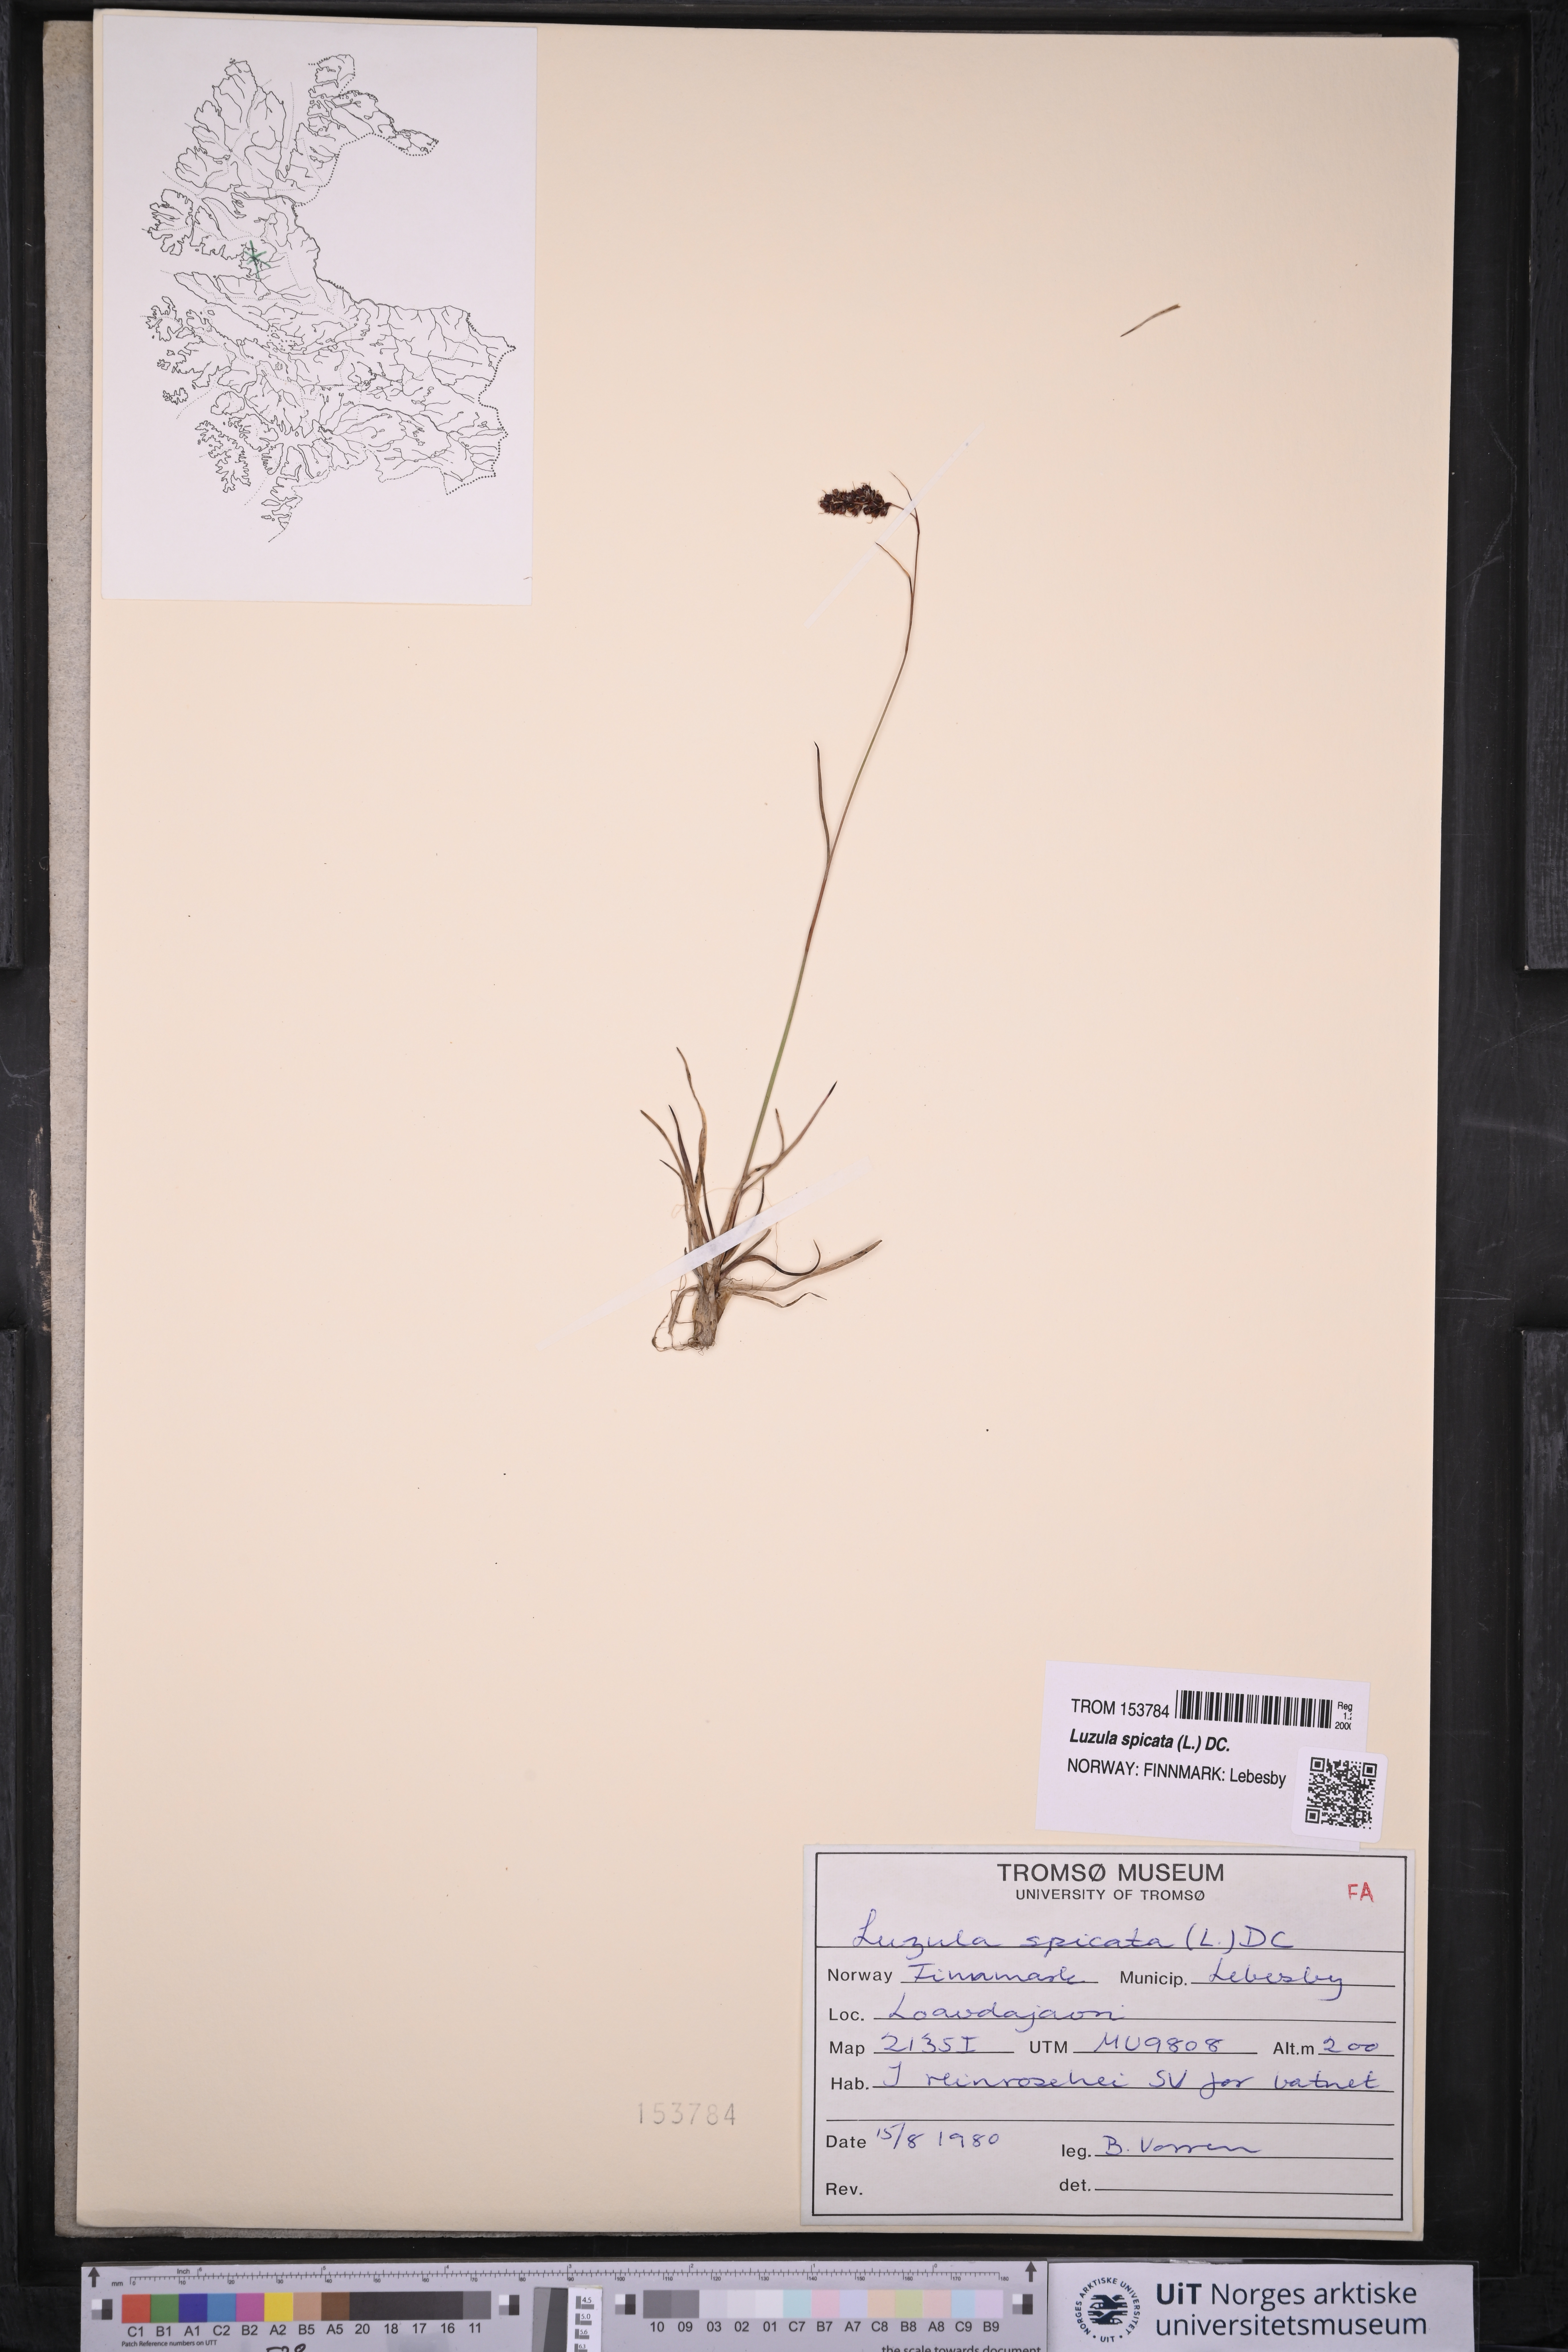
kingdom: Plantae
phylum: Tracheophyta
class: Liliopsida
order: Poales
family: Juncaceae
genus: Luzula
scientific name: Luzula spicata
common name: Spiked wood-rush
